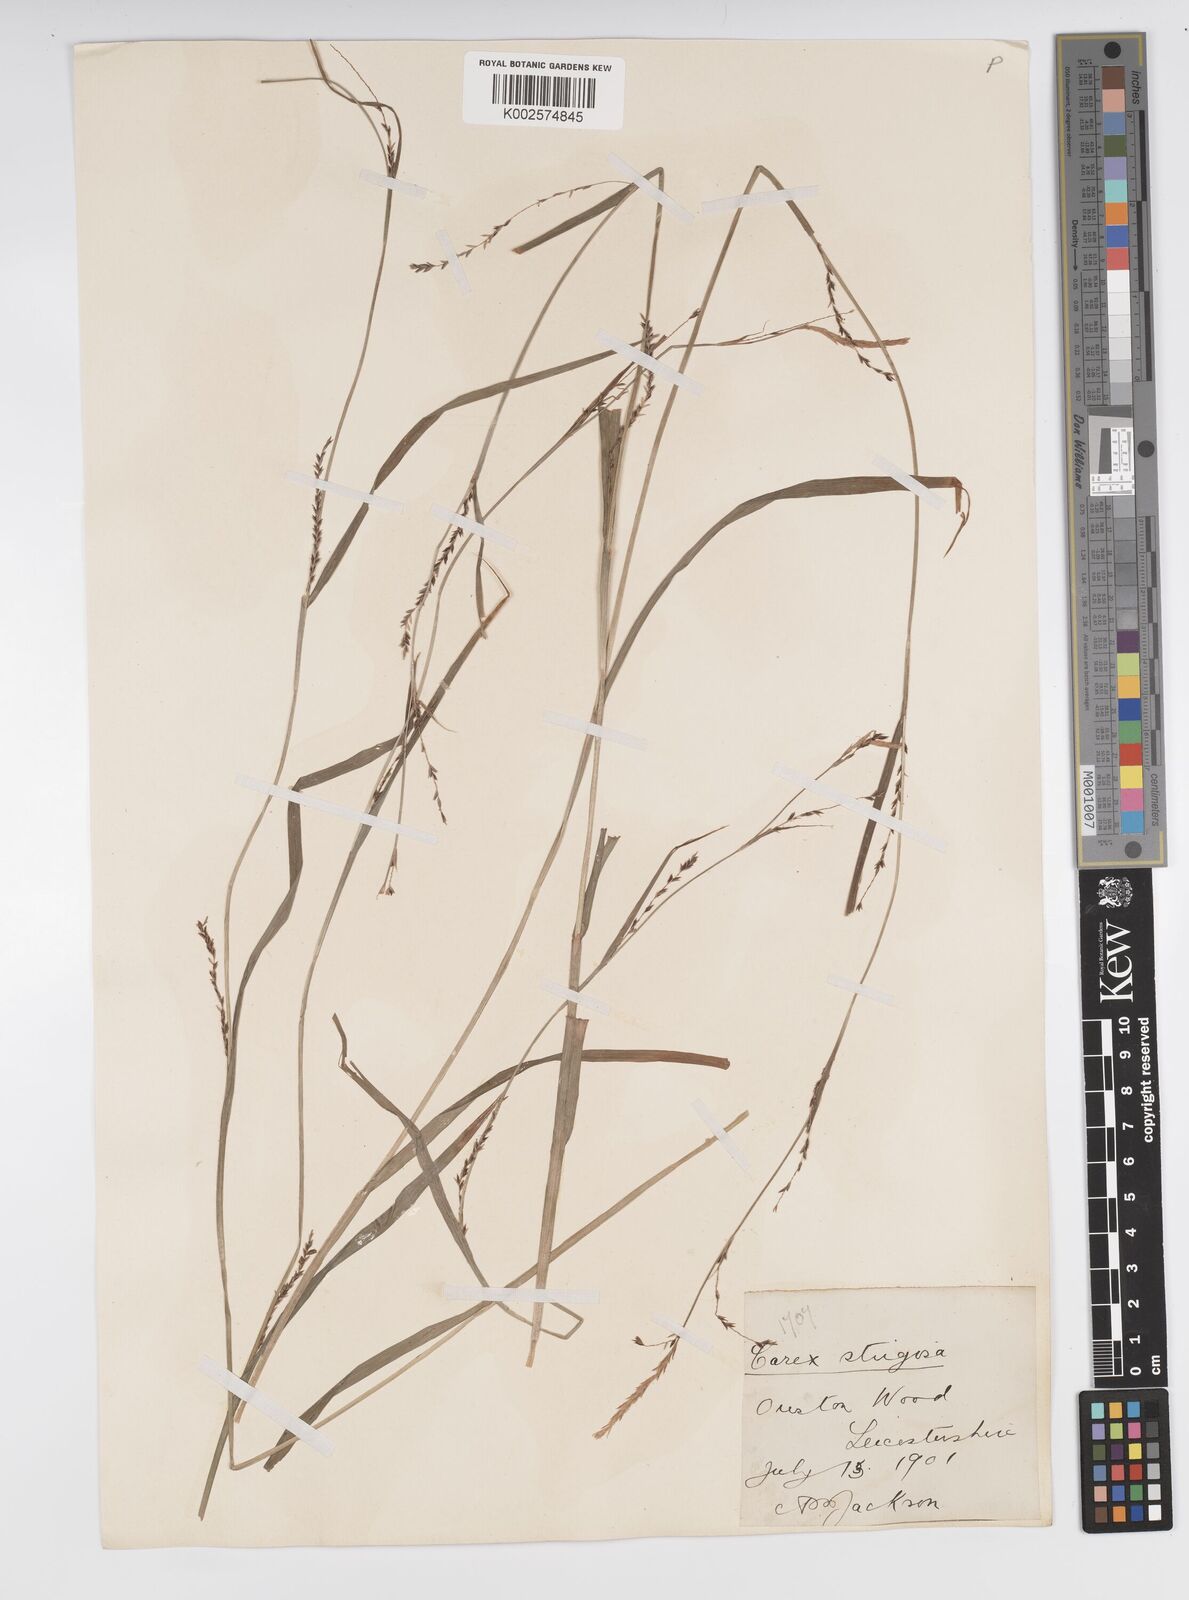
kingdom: Plantae
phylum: Tracheophyta
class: Liliopsida
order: Poales
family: Cyperaceae
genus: Carex
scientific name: Carex strigosa
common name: Thin-spiked wood-sedge
